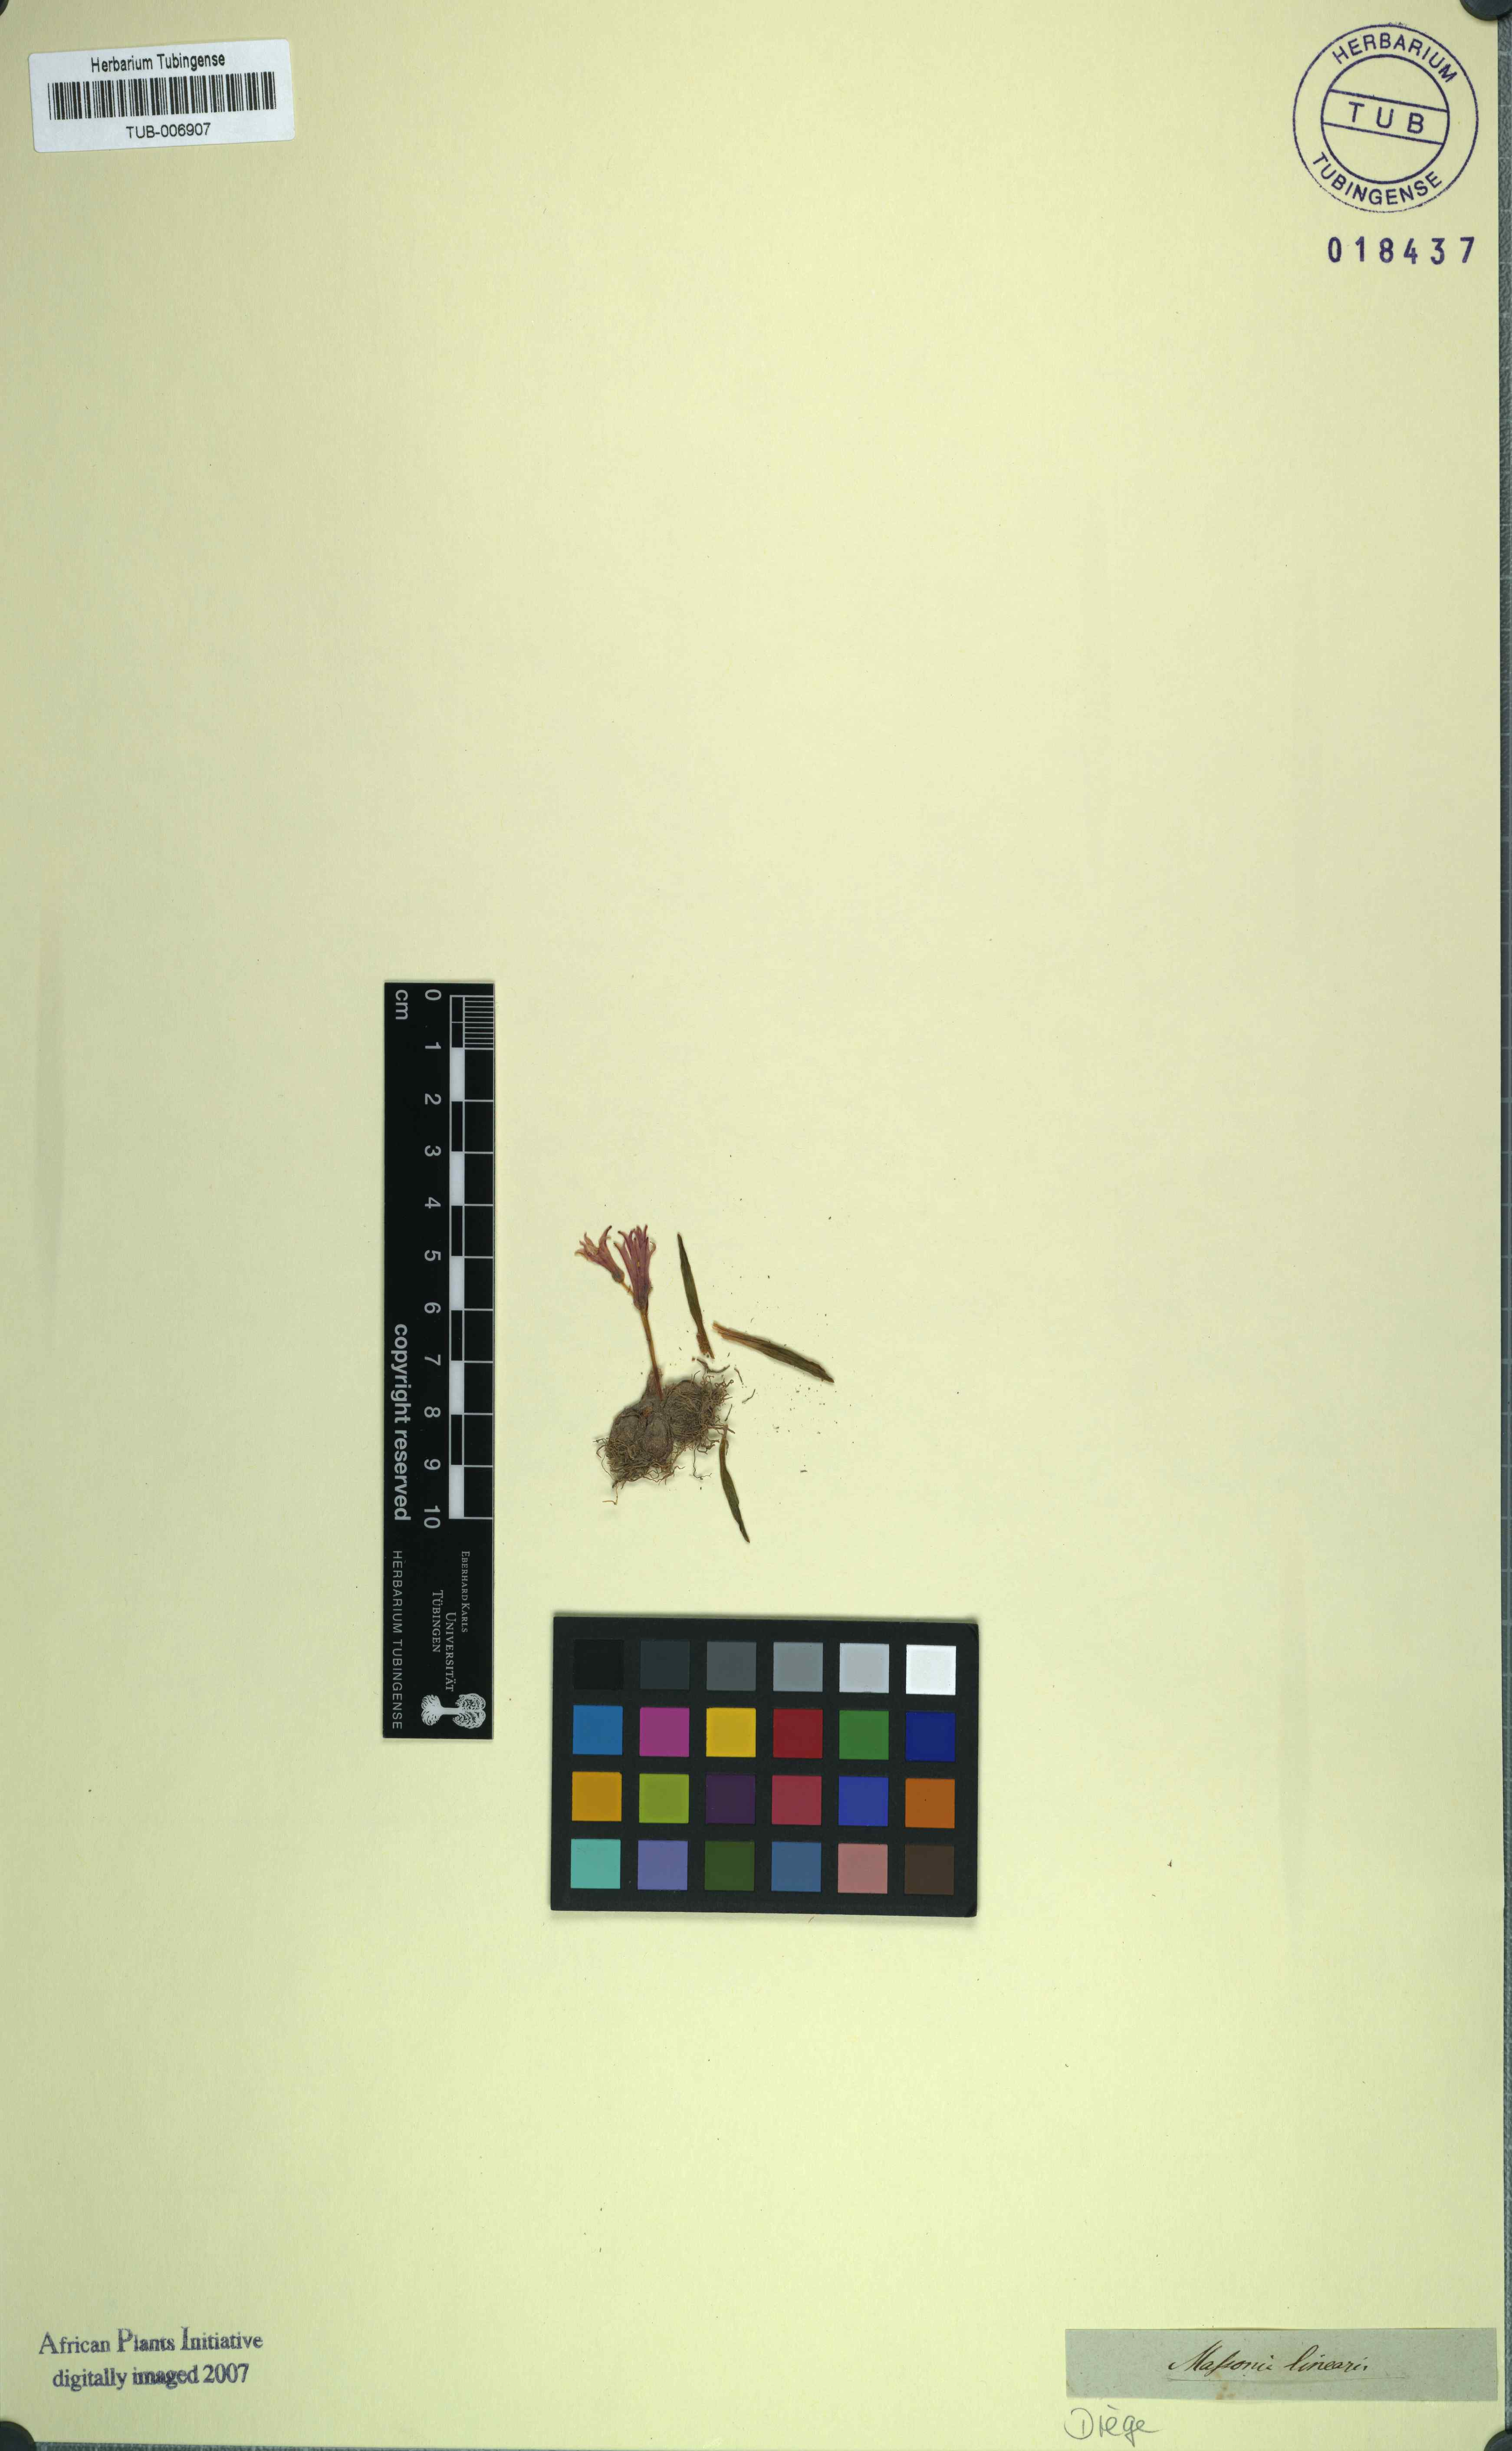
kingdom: Plantae
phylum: Tracheophyta
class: Liliopsida
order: Asparagales
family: Asparagaceae
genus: Lachenalia
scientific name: Lachenalia corymbosa
